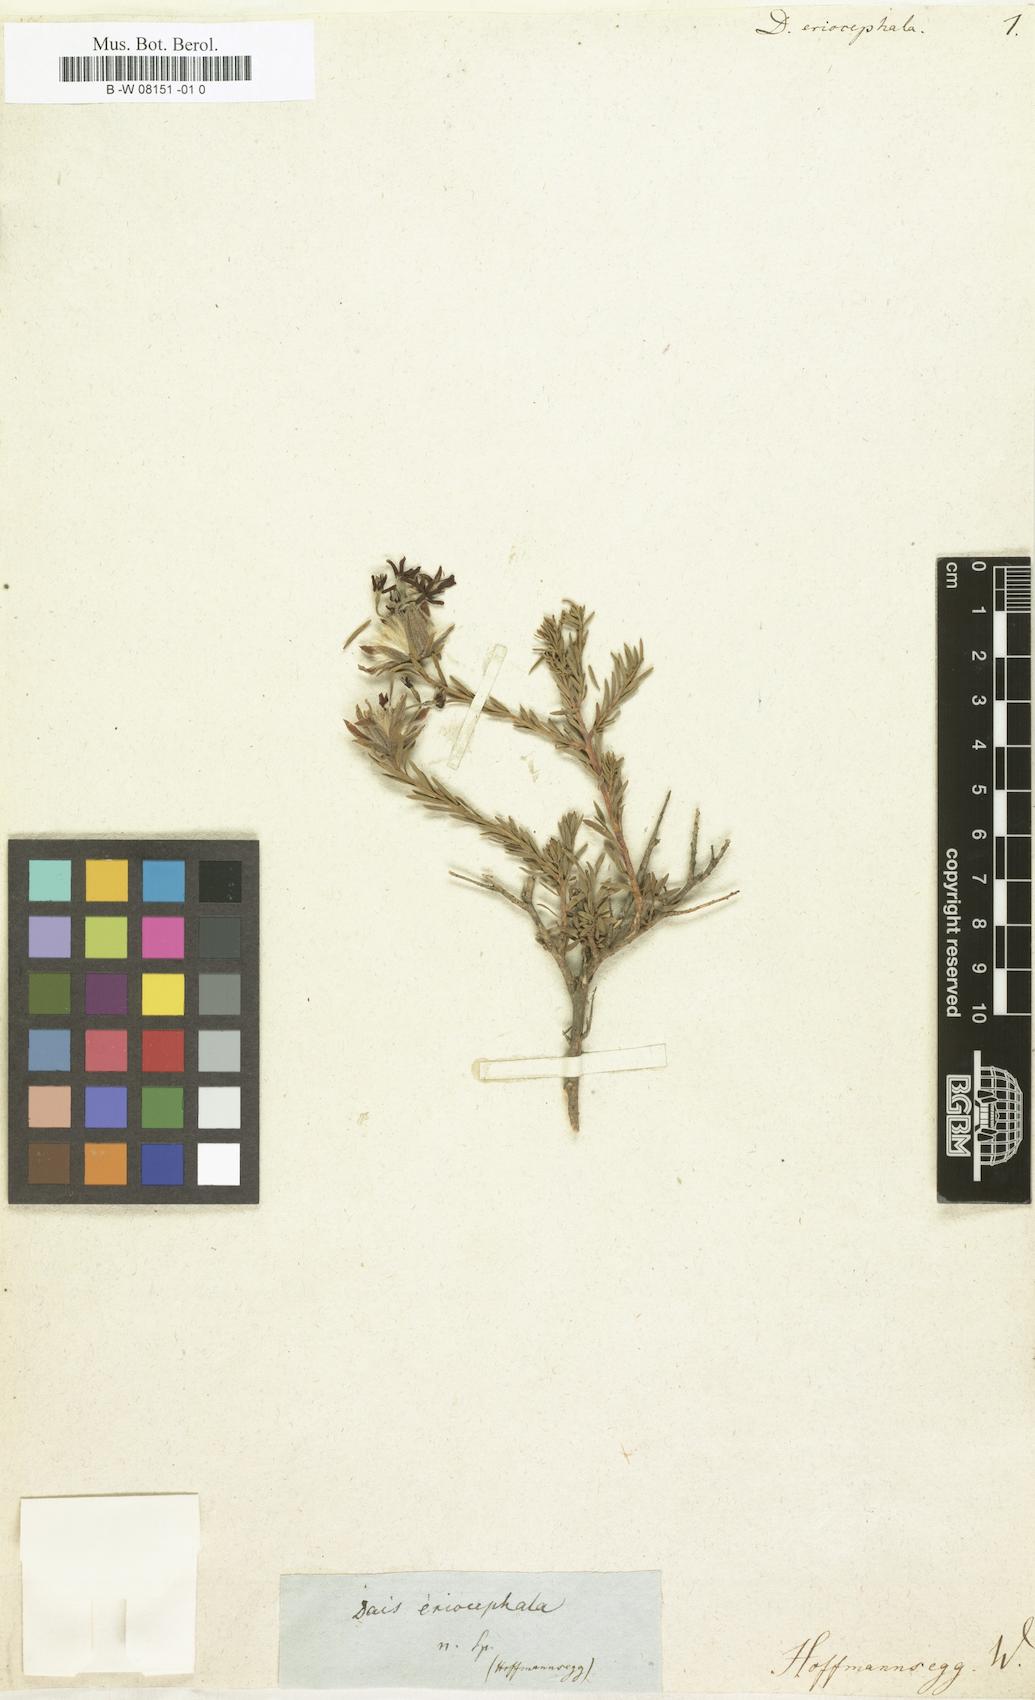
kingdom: Plantae
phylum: Tracheophyta
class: Magnoliopsida
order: Malvales
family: Thymelaeaceae
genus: Dais
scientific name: Dais cotinifolia
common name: Pompon tree
